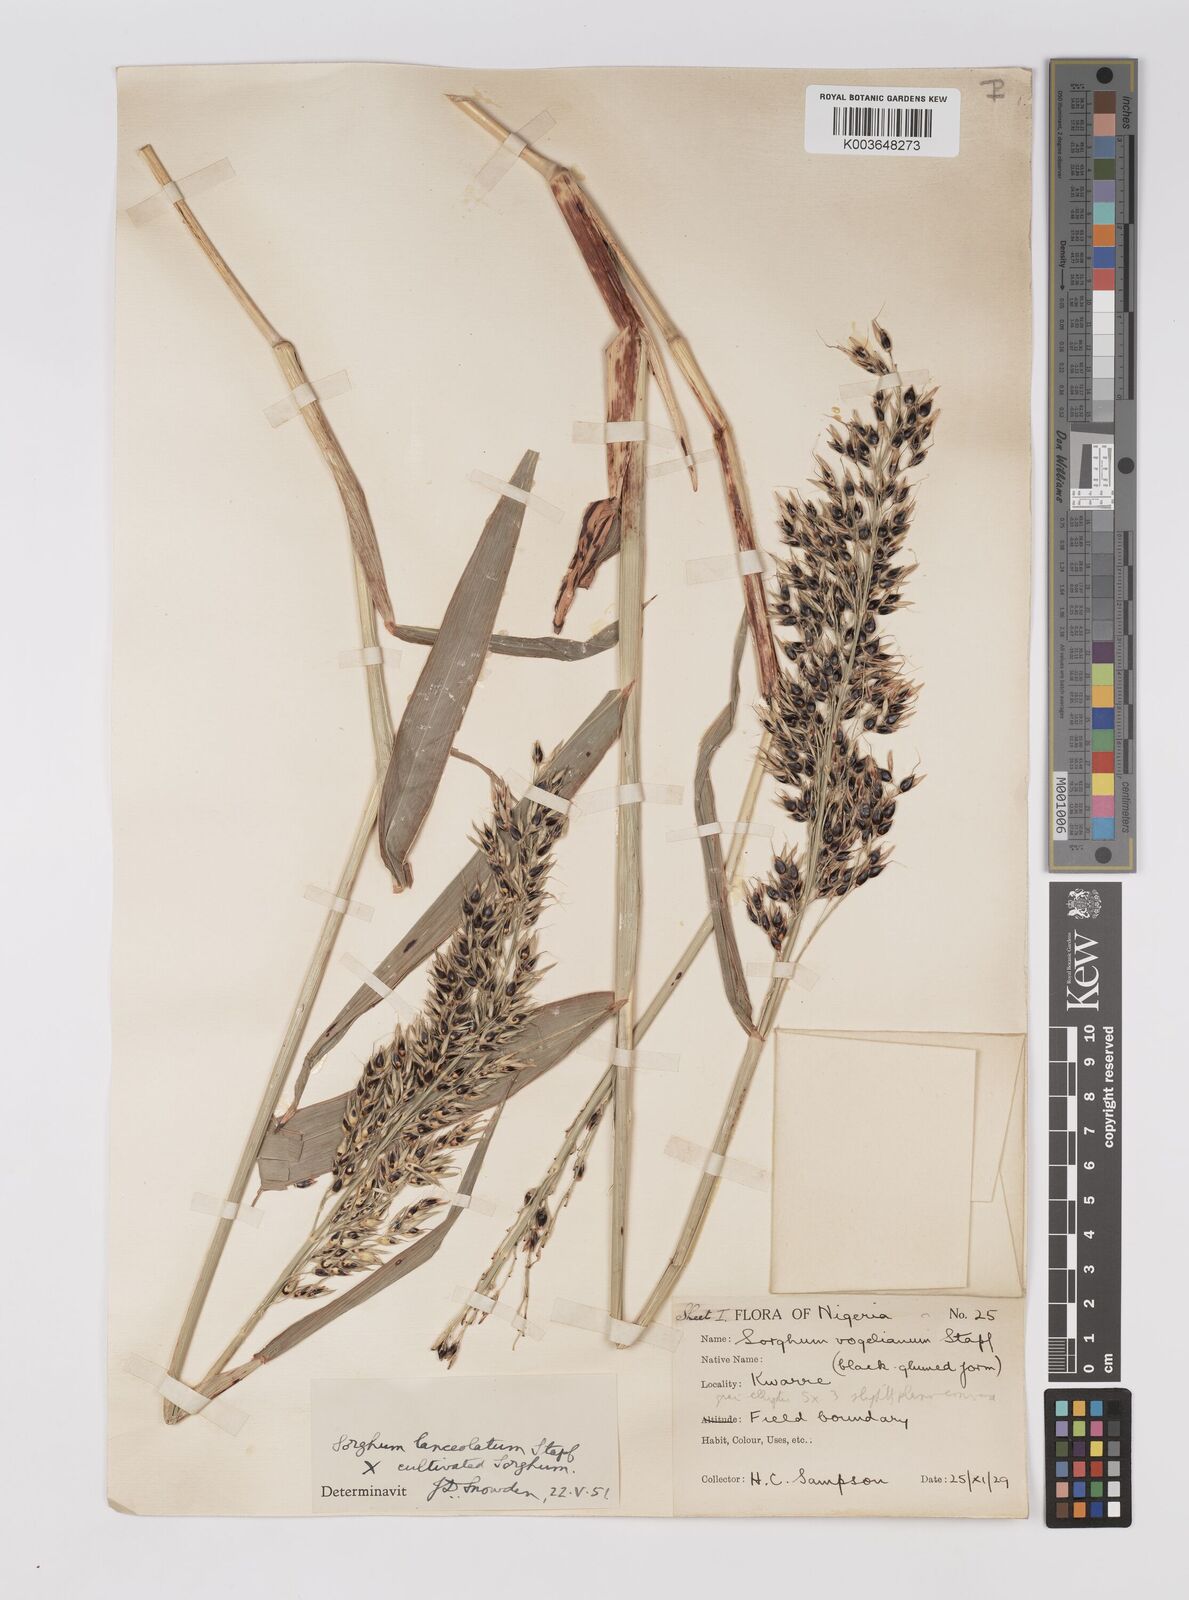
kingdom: Plantae
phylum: Tracheophyta
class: Liliopsida
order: Poales
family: Poaceae
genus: Sorghum
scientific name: Sorghum drummondii
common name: Sudangrass
